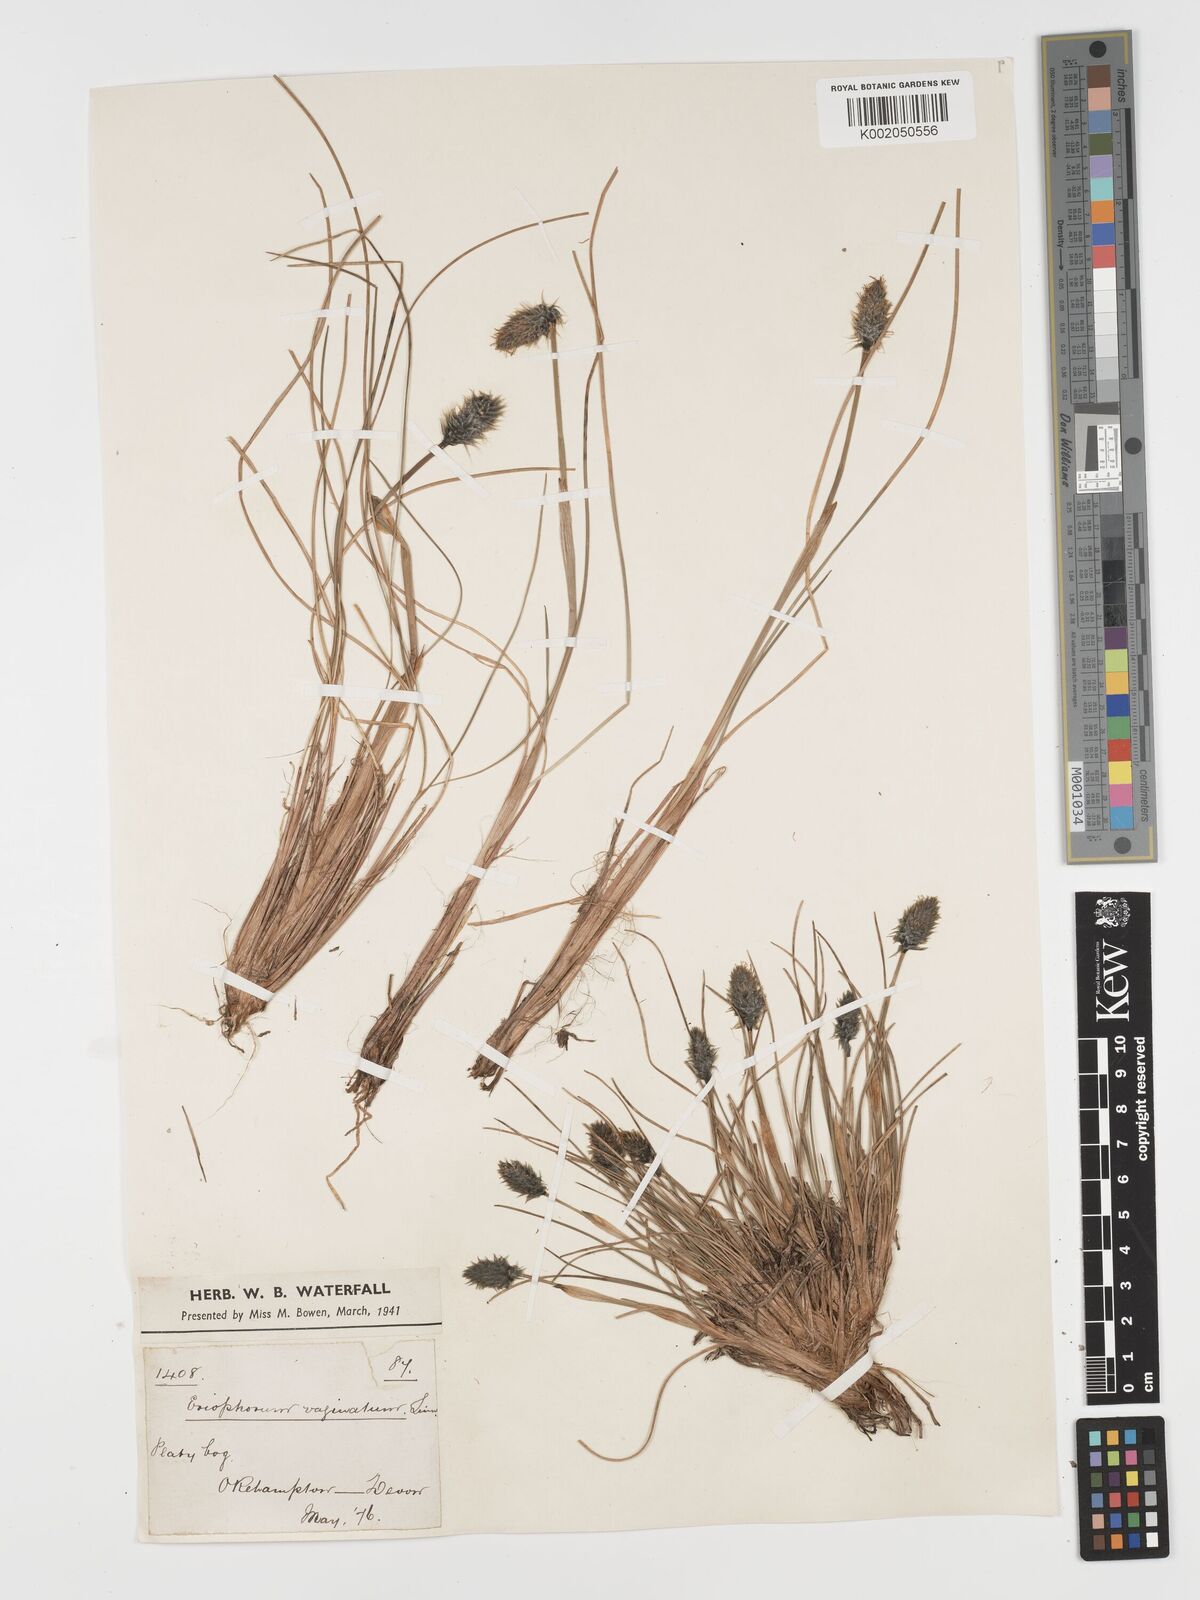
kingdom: Plantae
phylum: Tracheophyta
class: Liliopsida
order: Poales
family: Cyperaceae
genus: Eriophorum
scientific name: Eriophorum vaginatum
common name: Hare's-tail cottongrass
